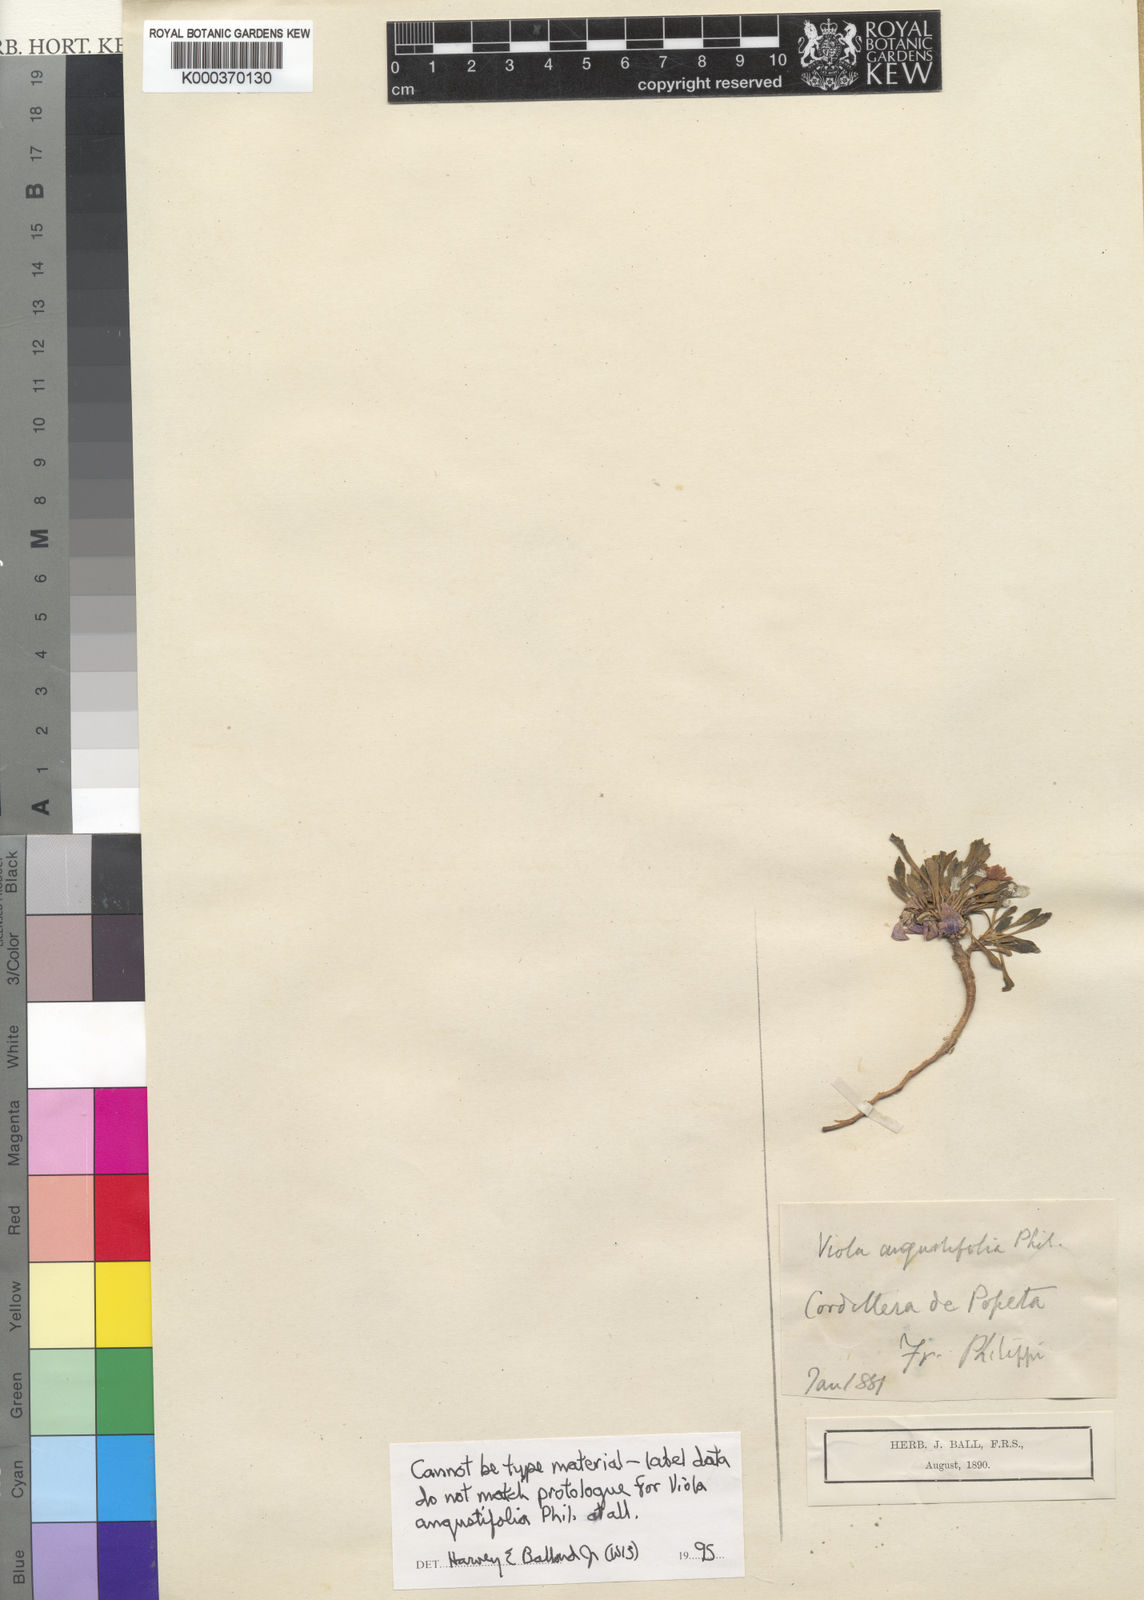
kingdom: Plantae
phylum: Tracheophyta
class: Magnoliopsida
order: Malpighiales
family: Violaceae
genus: Viola
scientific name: Viola angustifolia
